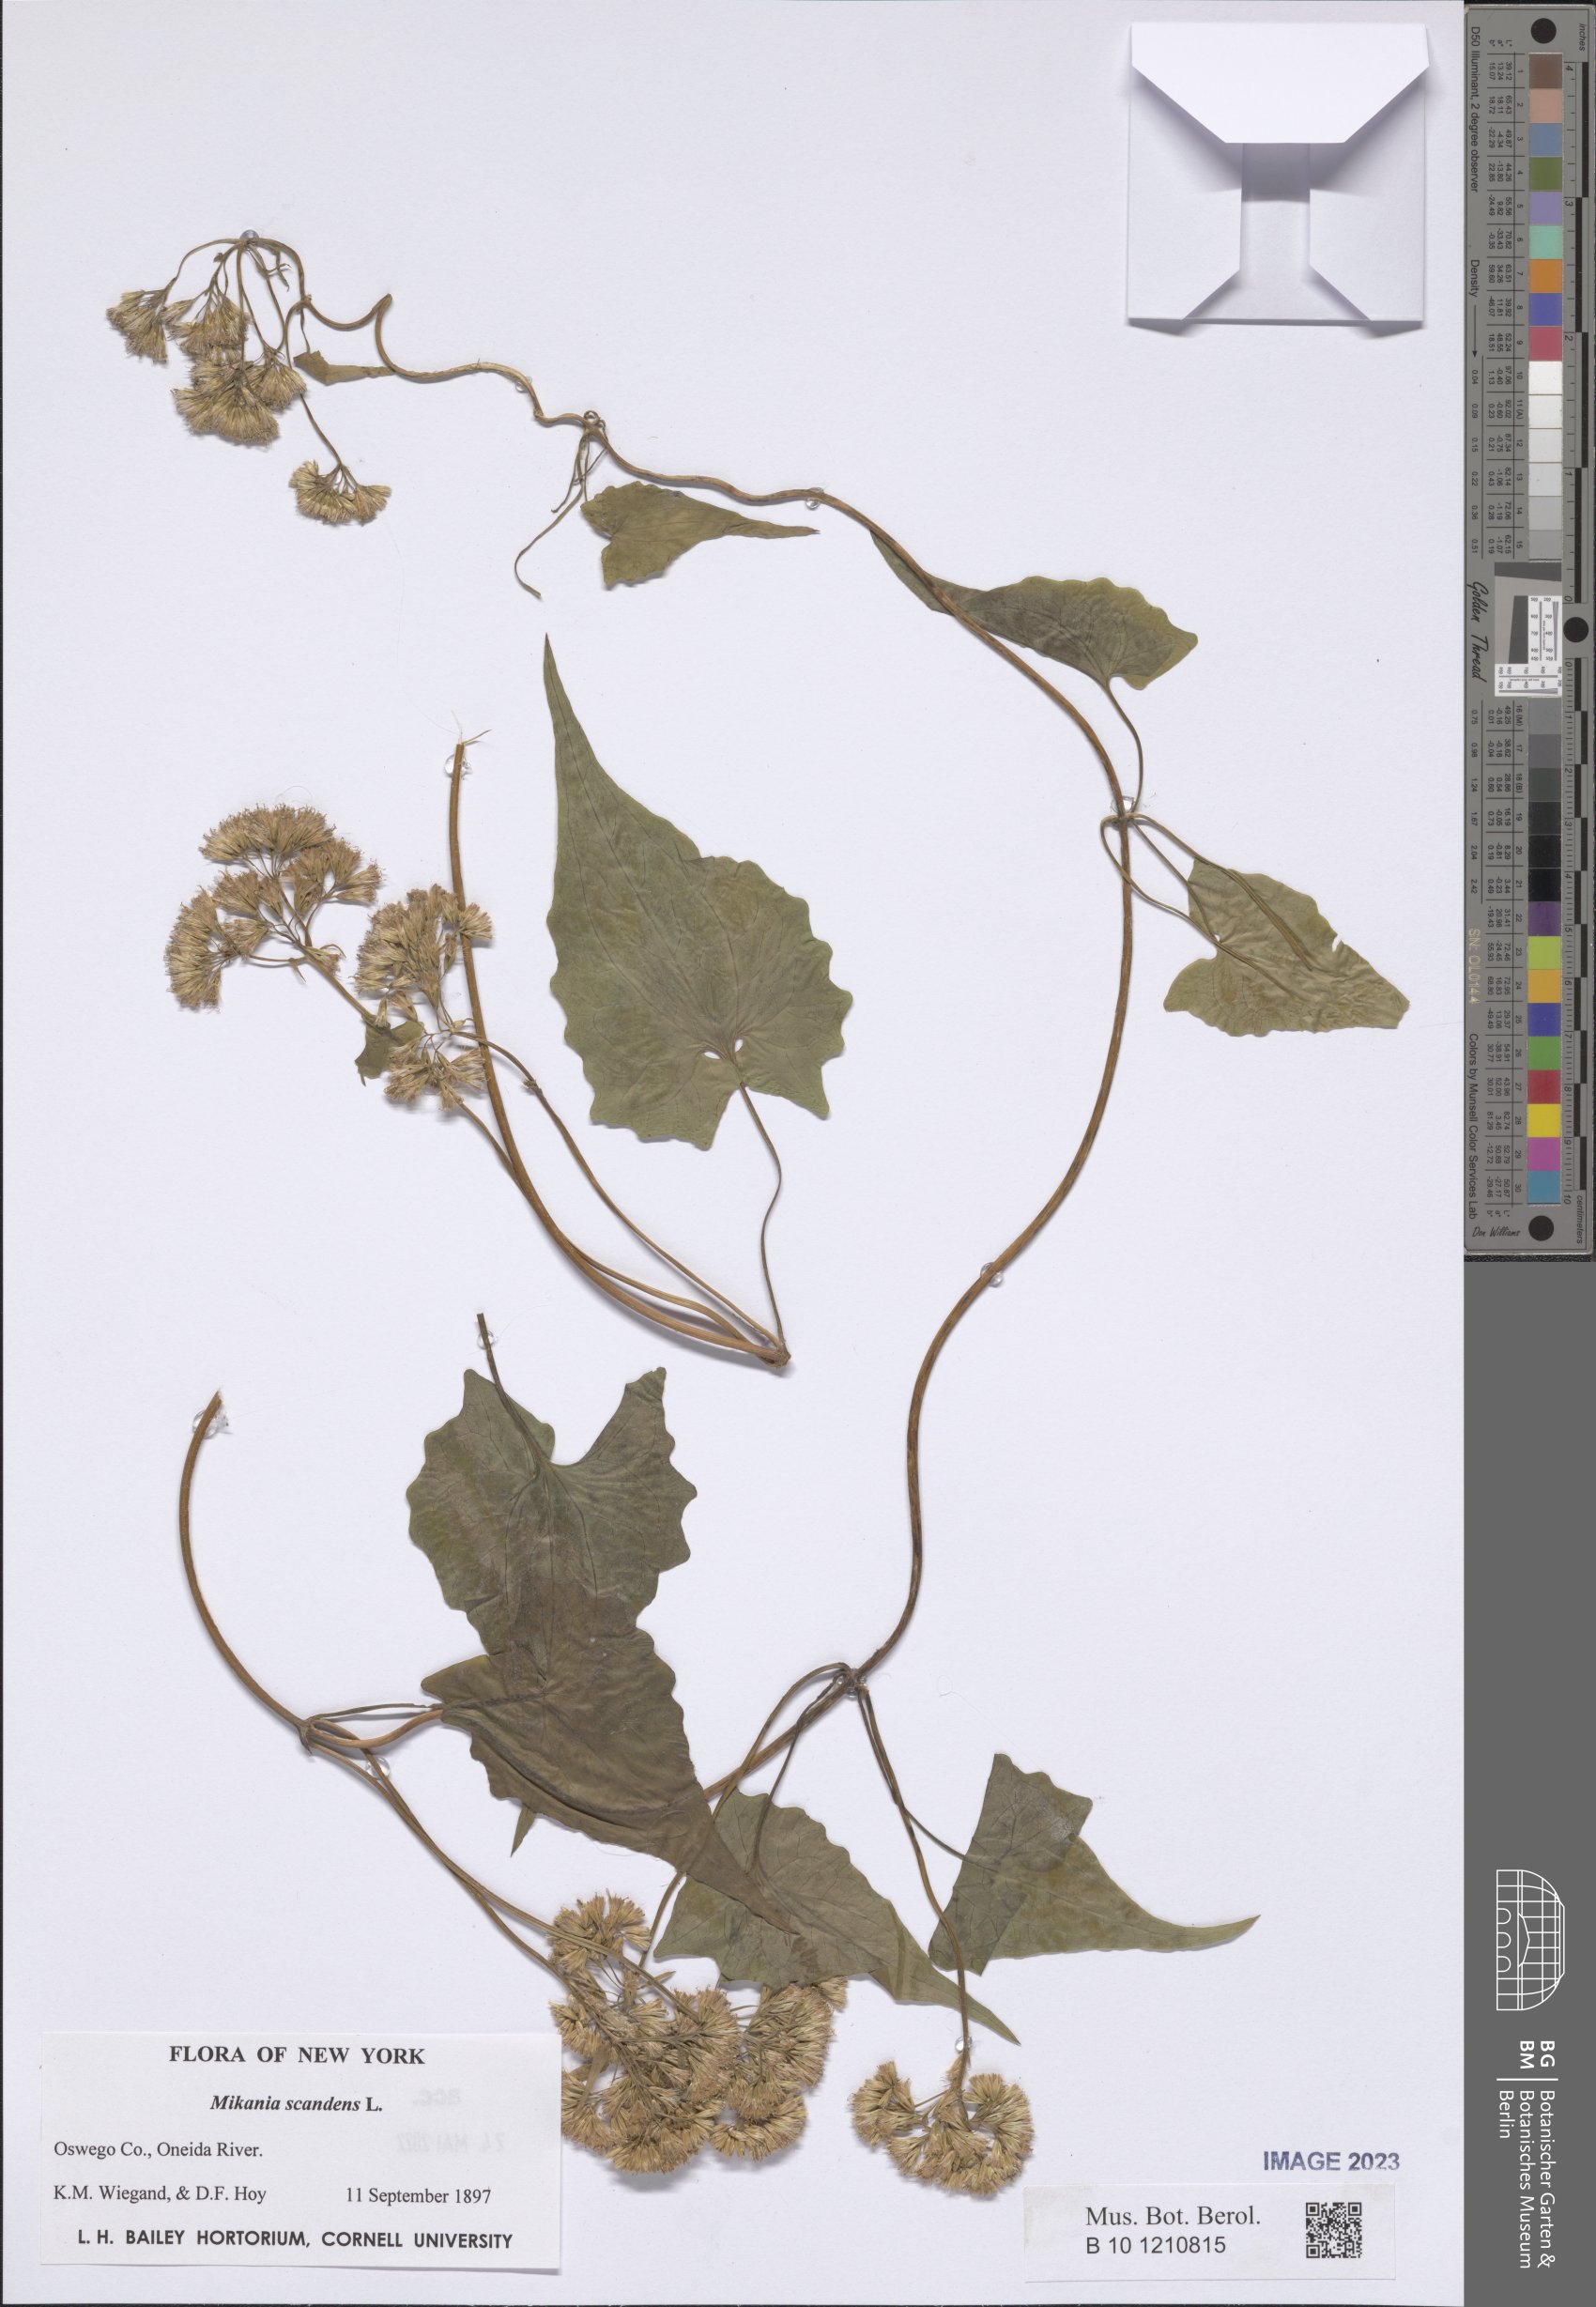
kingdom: Plantae
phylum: Tracheophyta
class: Magnoliopsida
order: Asterales
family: Asteraceae
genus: Mikania
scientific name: Mikania scandens
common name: Climbing hempvine
